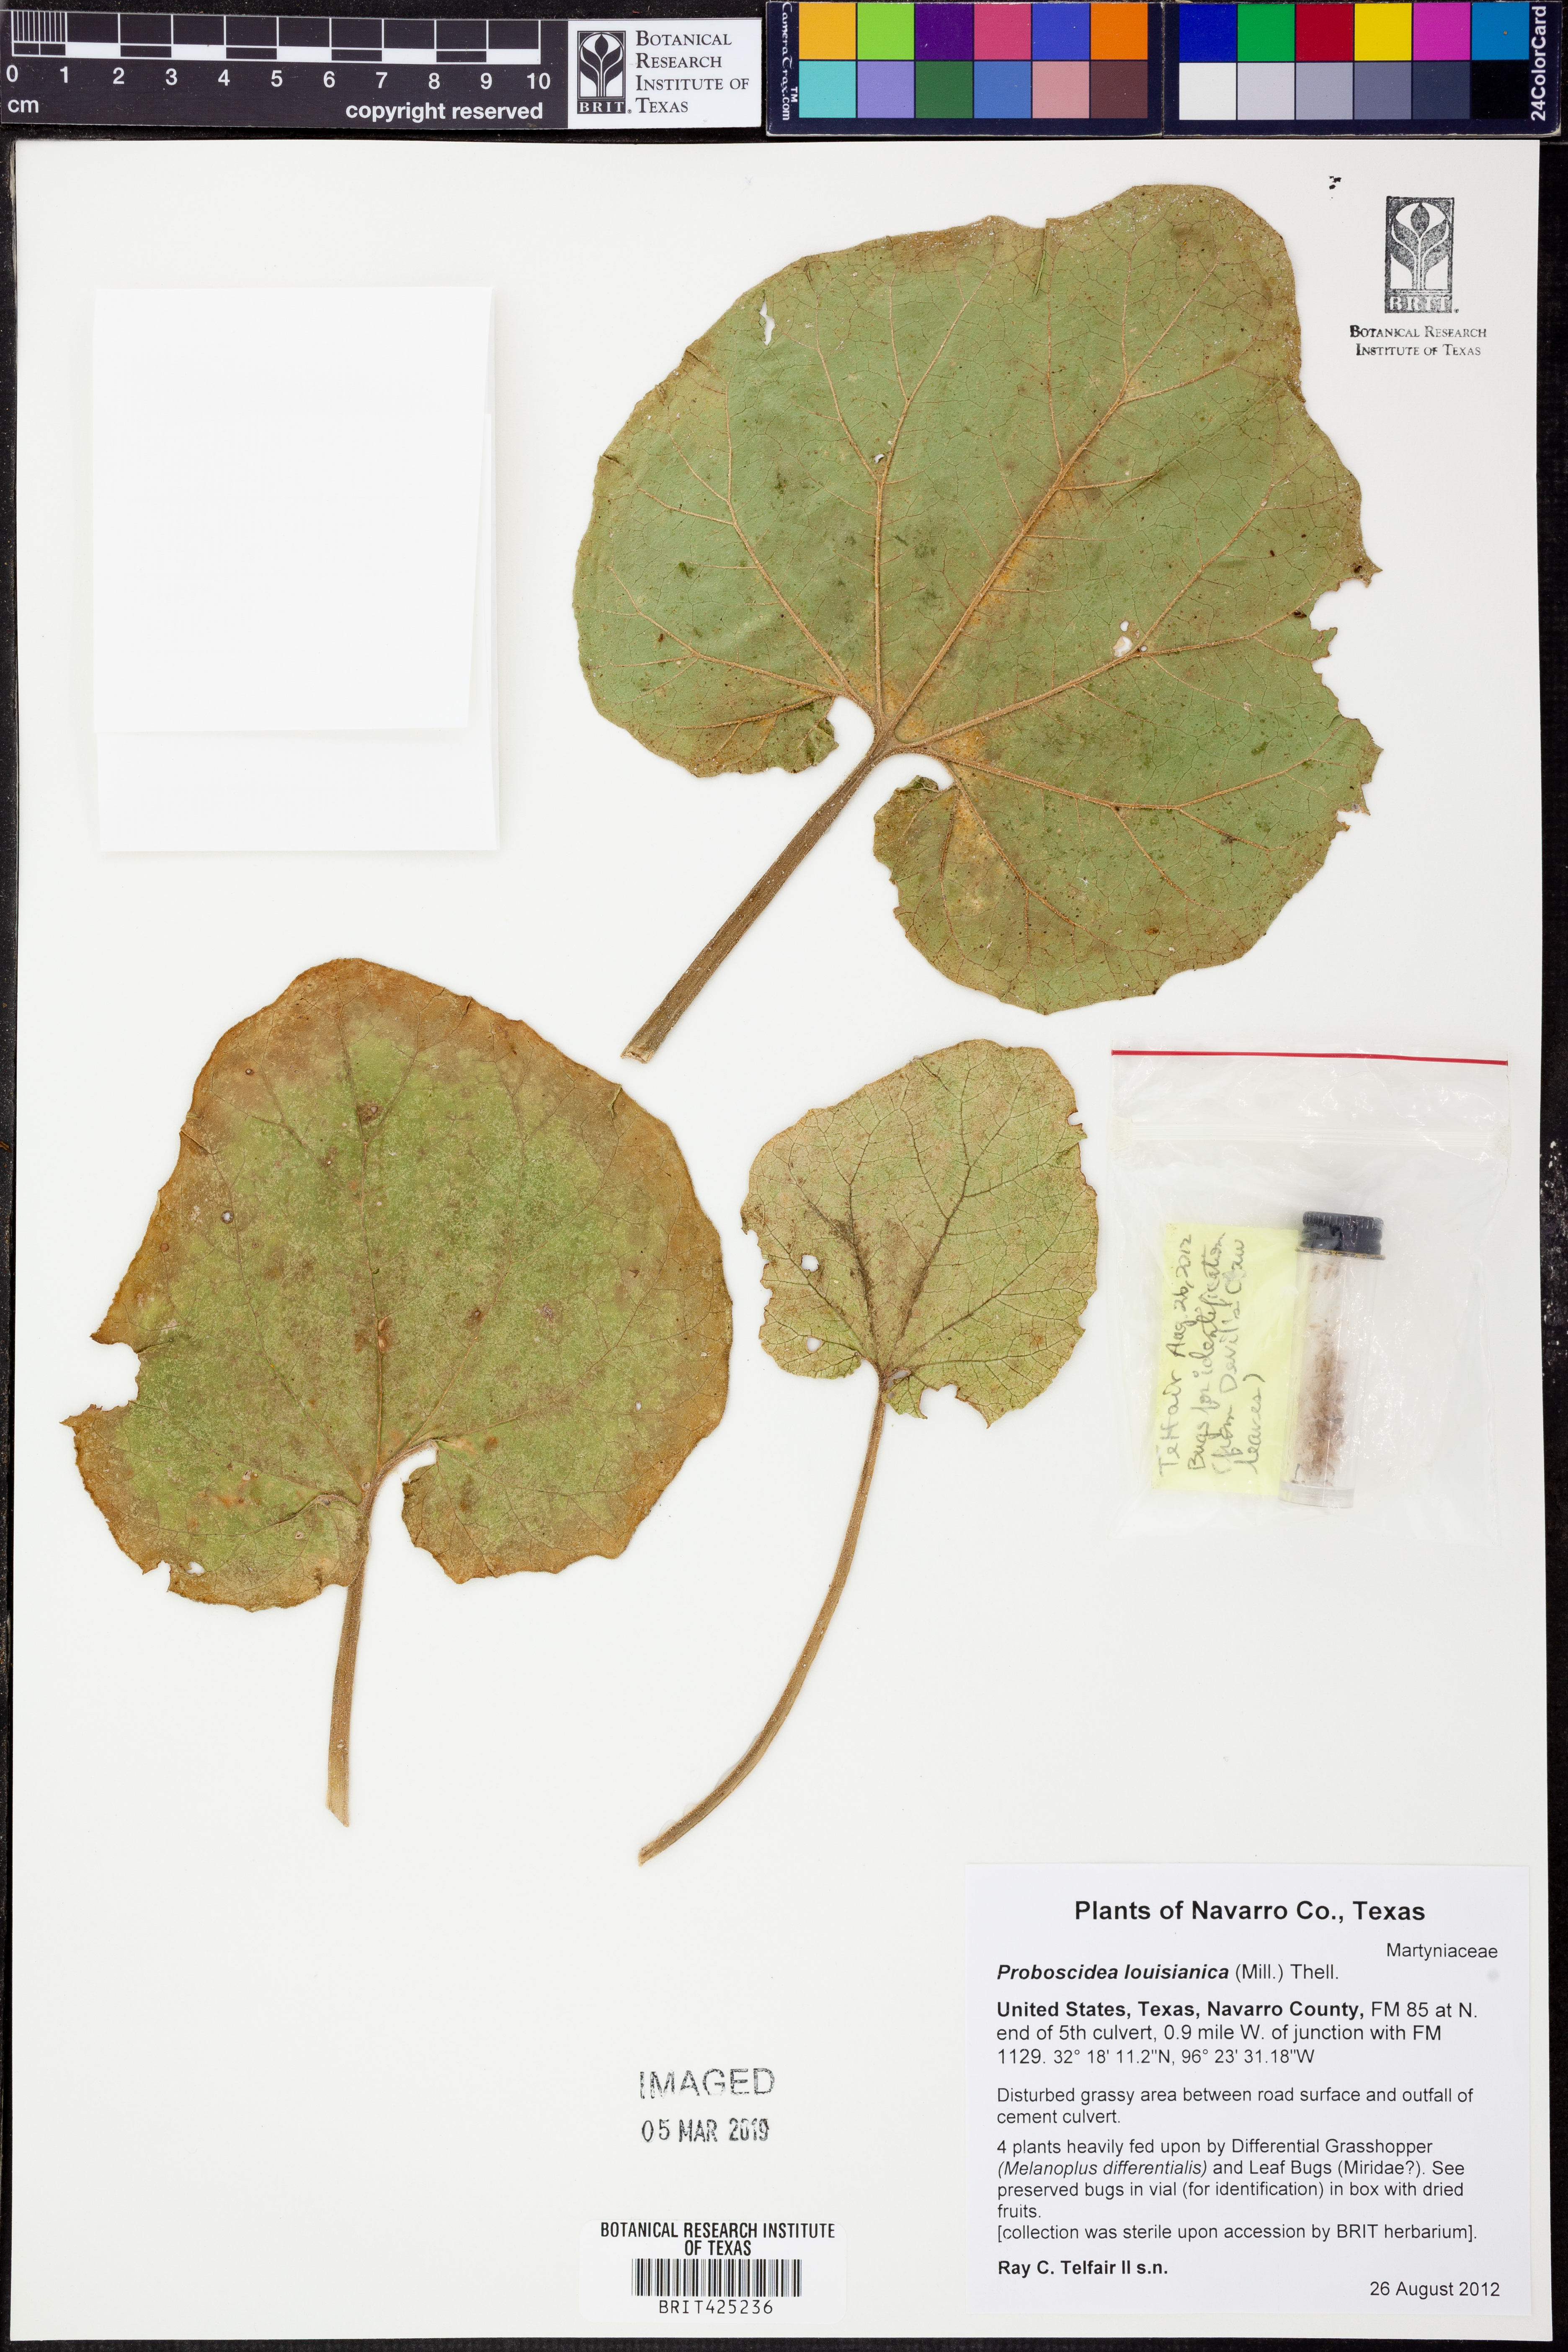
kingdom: Plantae
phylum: Tracheophyta
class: Magnoliopsida
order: Lamiales
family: Martyniaceae
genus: Proboscidea
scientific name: Proboscidea louisianica
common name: Elephant tusks
